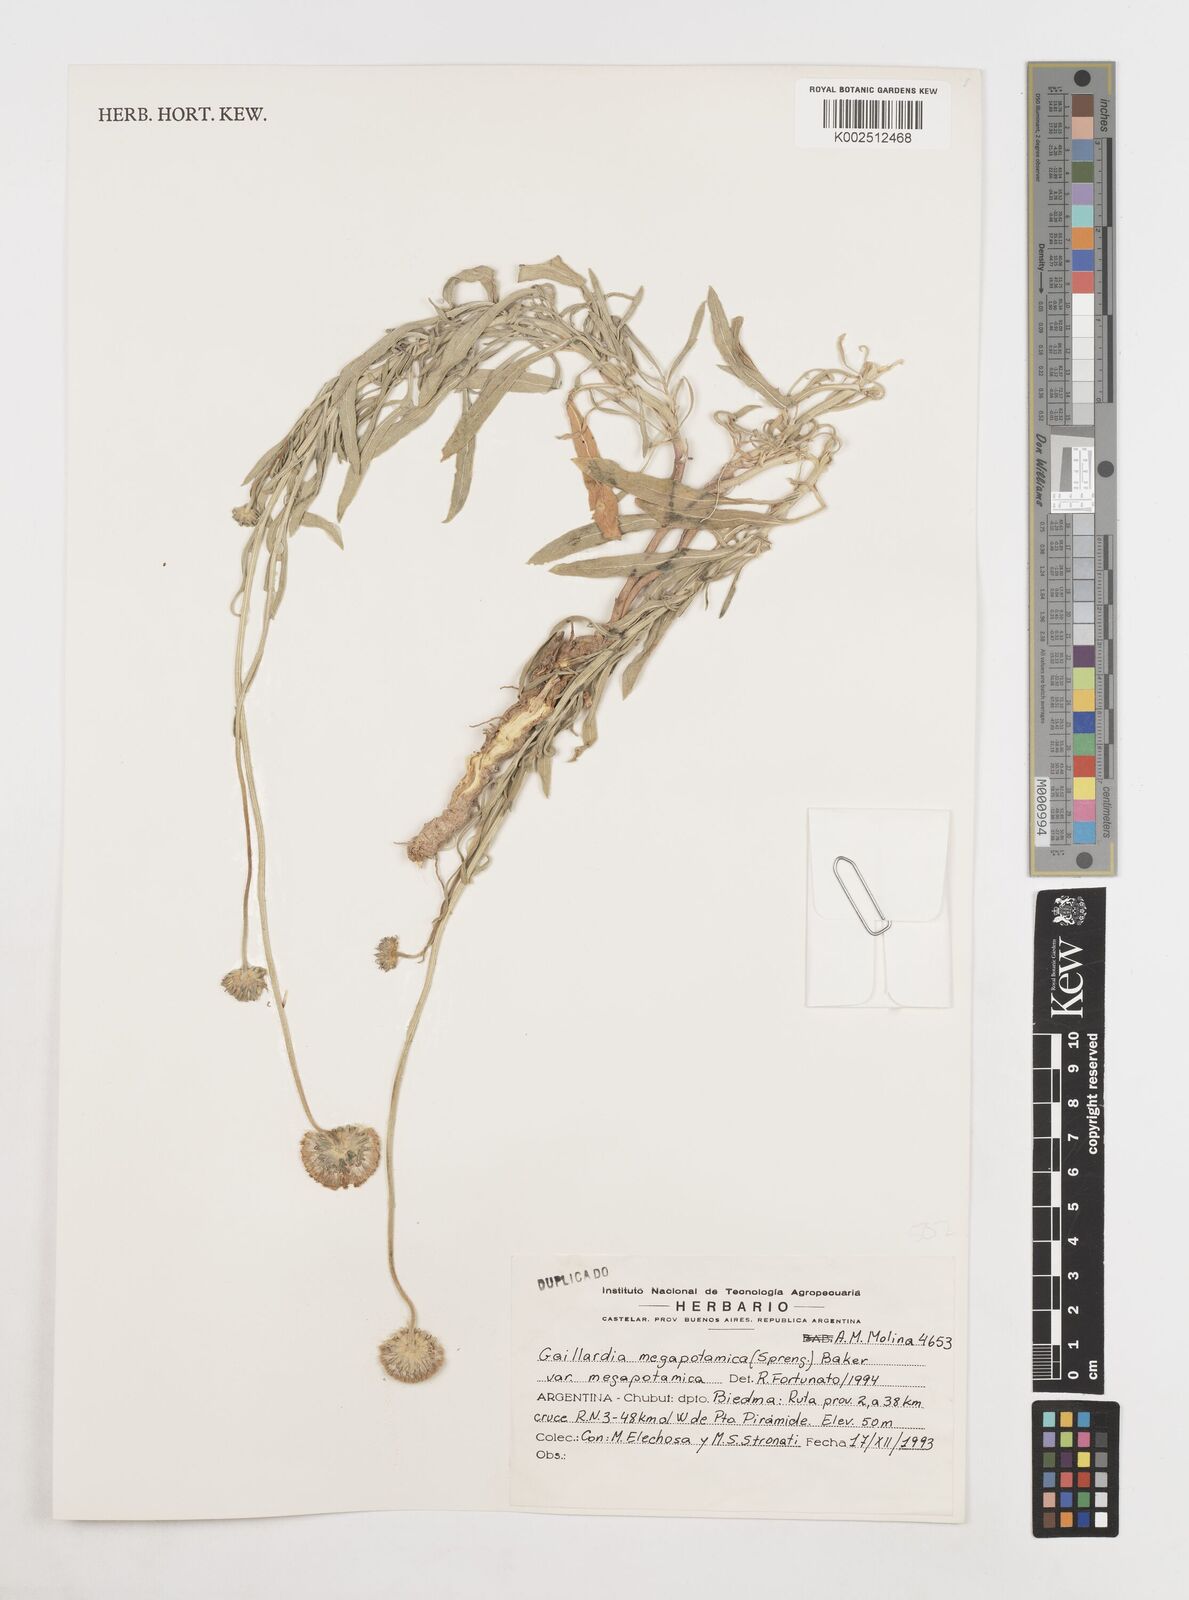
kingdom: Plantae
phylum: Tracheophyta
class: Magnoliopsida
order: Asterales
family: Asteraceae
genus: Gaillardia
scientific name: Gaillardia megapotamica
